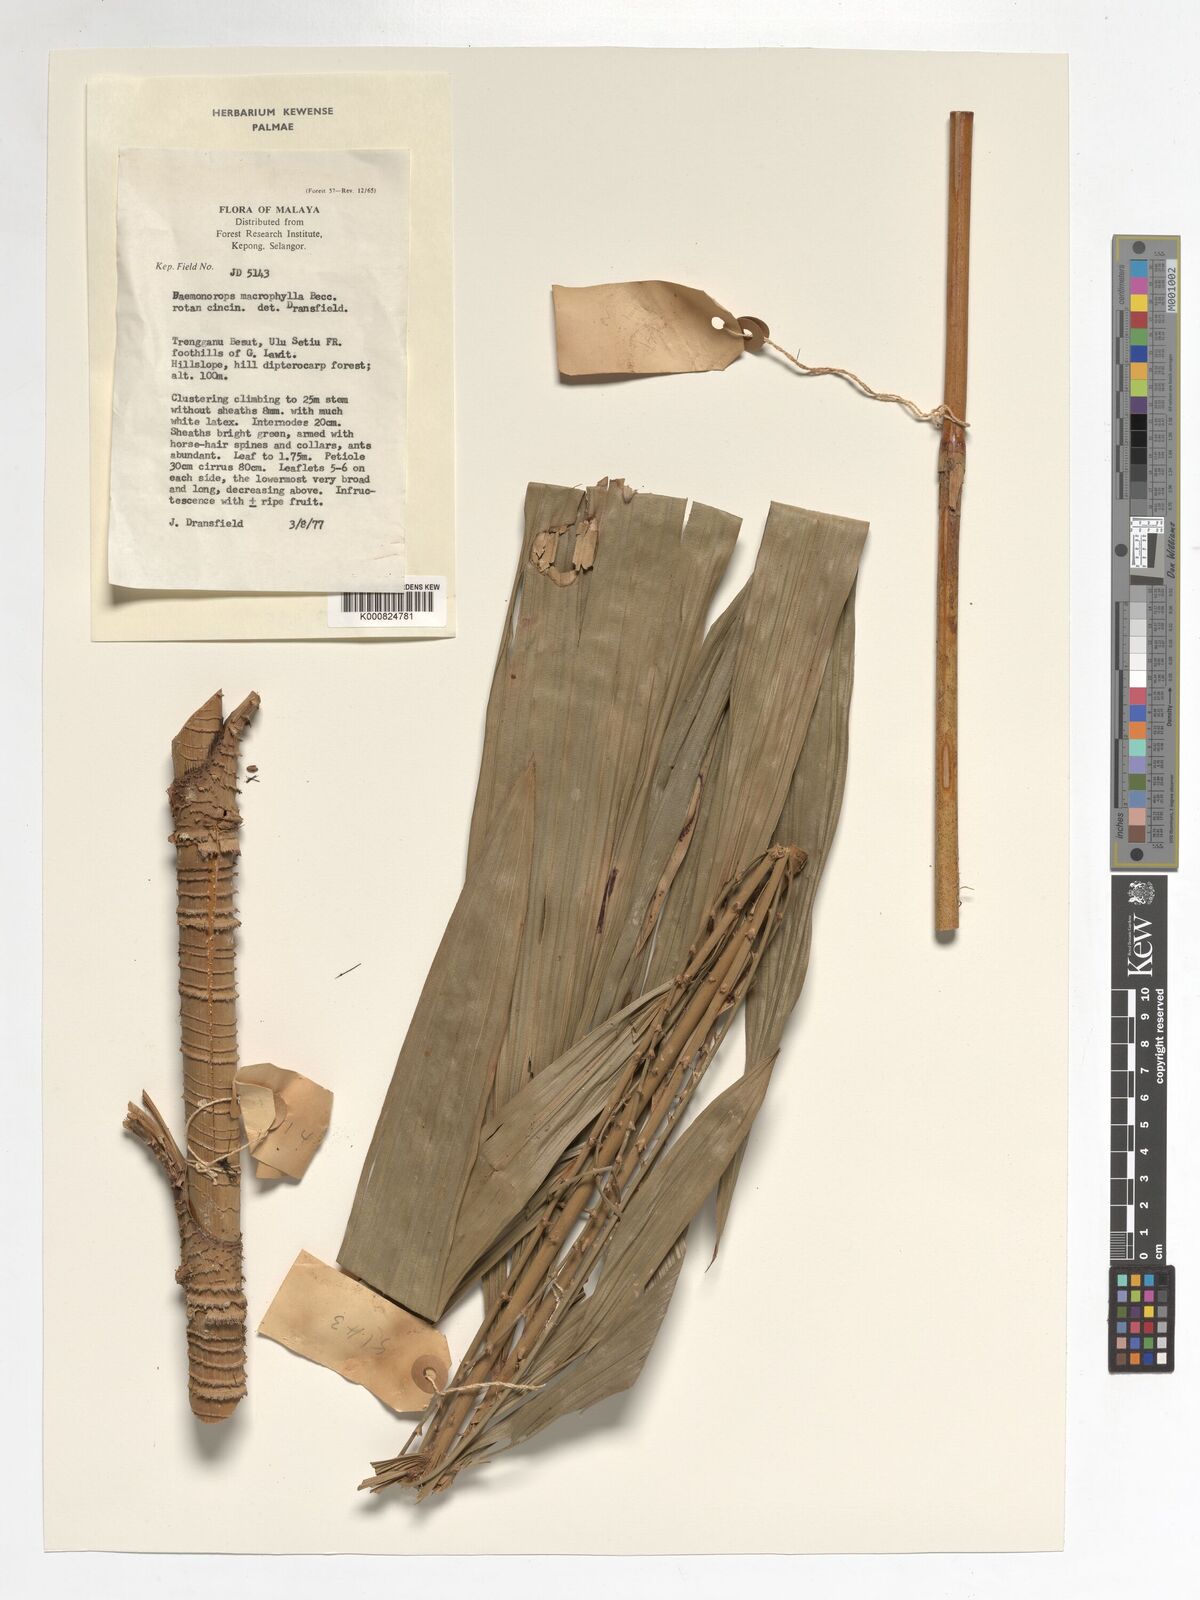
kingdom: Plantae
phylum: Tracheophyta
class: Liliopsida
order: Arecales
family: Arecaceae
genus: Calamus
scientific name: Calamus crinitus
